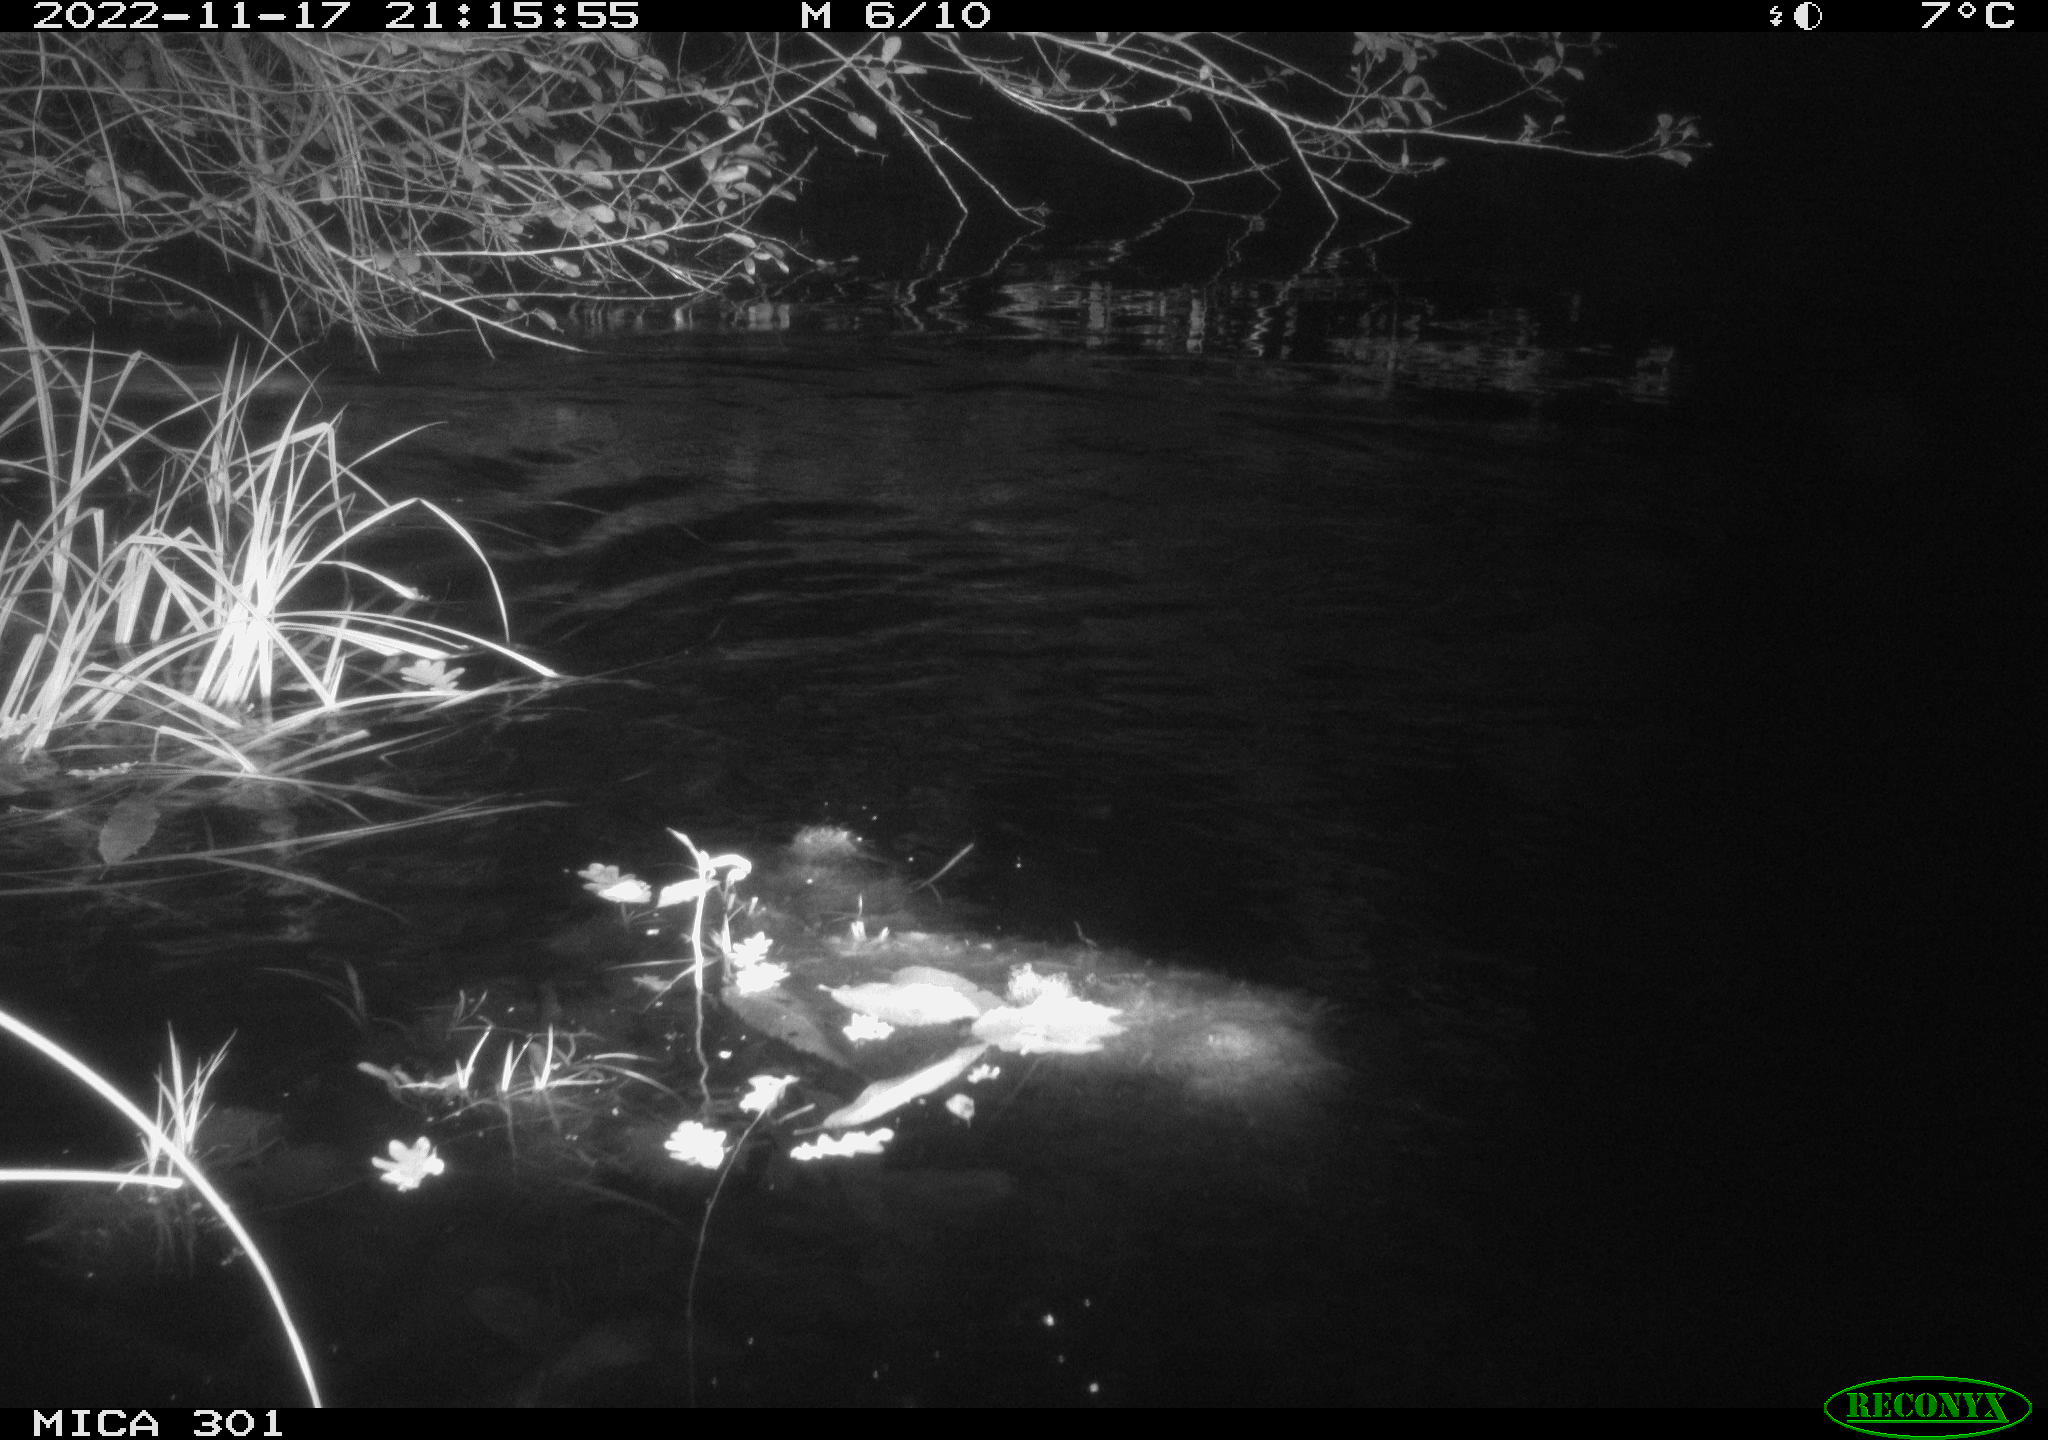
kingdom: Animalia
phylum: Chordata
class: Mammalia
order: Rodentia
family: Castoridae
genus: Castor
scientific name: Castor fiber
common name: Eurasian beaver
